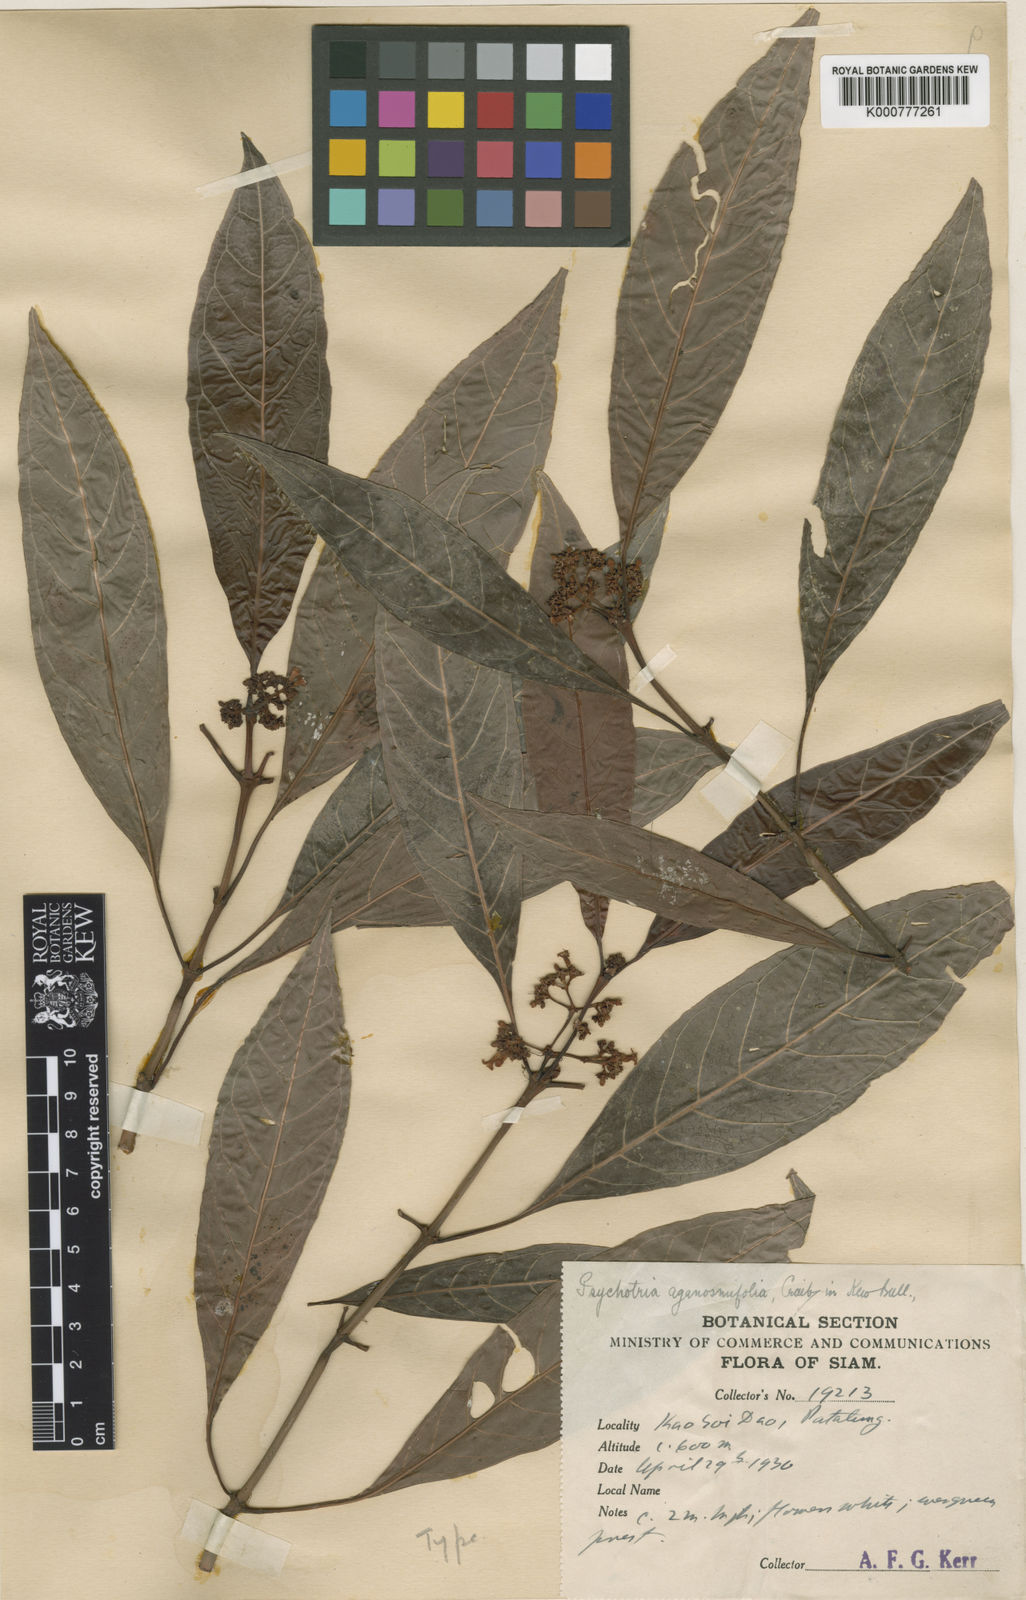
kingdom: Plantae
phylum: Tracheophyta
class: Magnoliopsida
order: Gentianales
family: Rubiaceae
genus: Psychotria
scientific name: Psychotria lanceolaria
